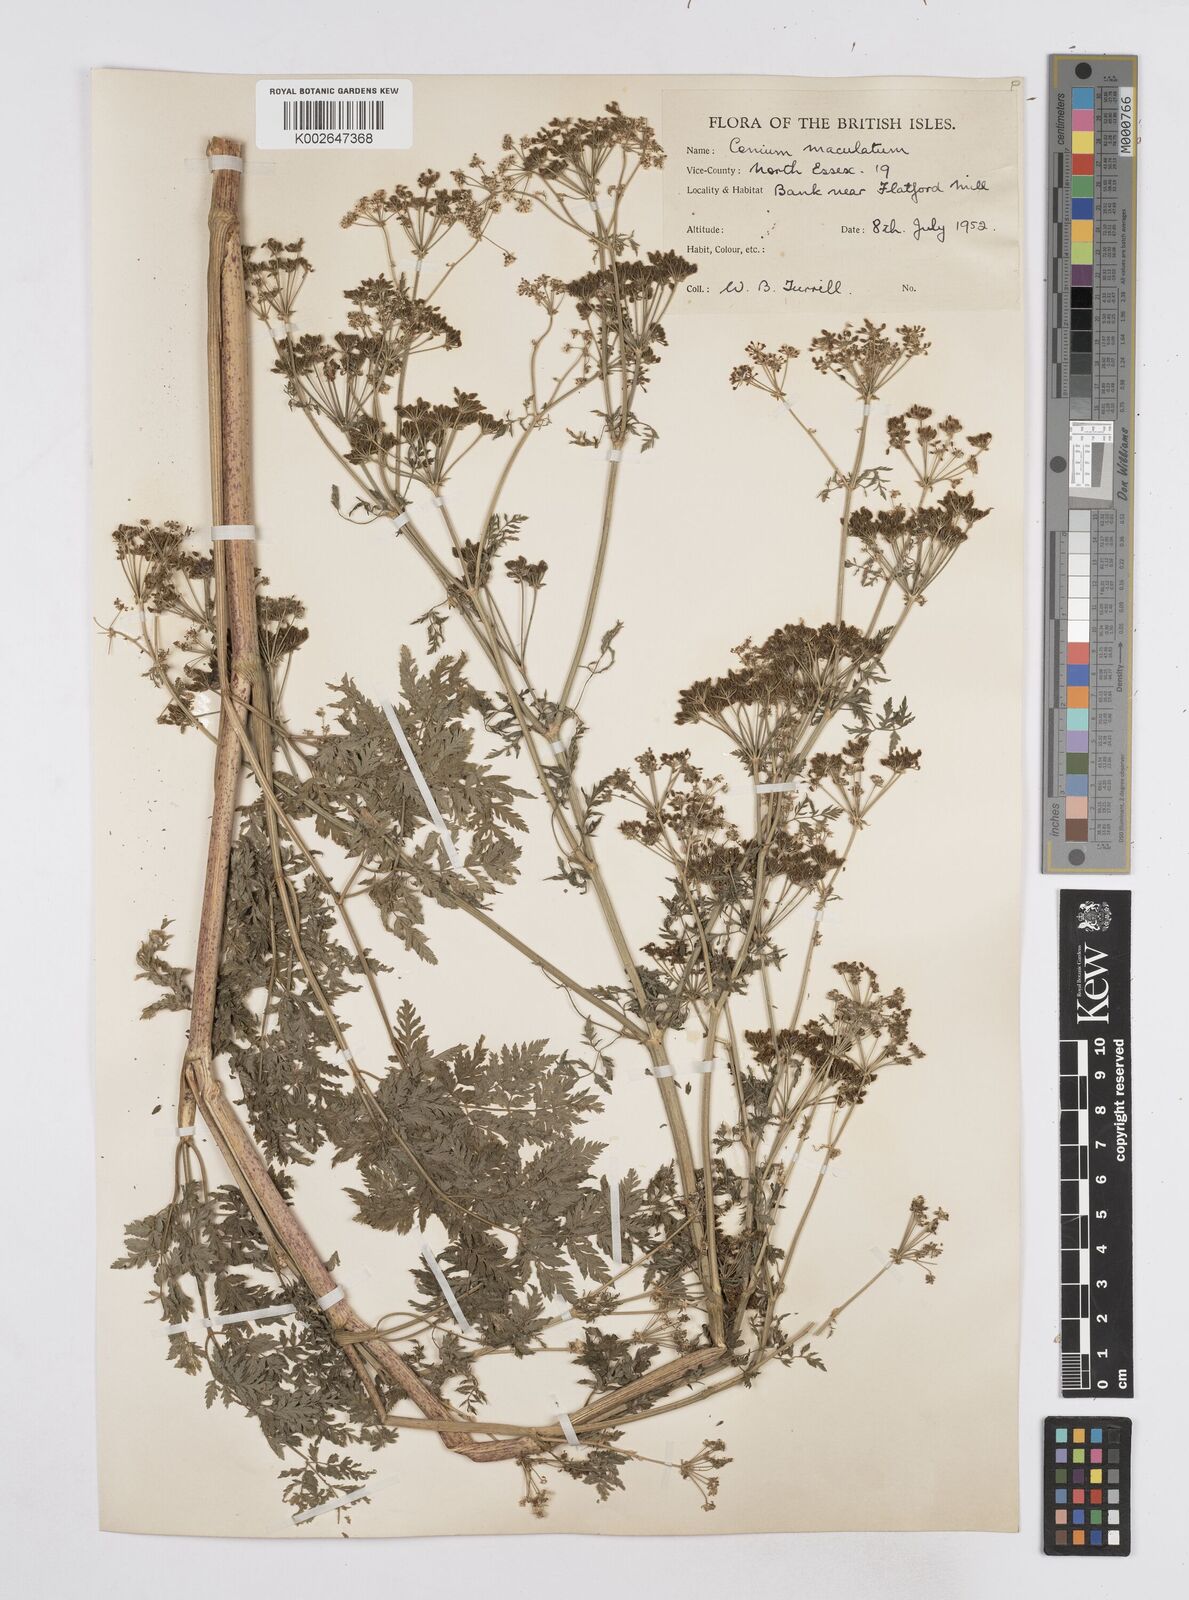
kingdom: Plantae
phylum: Tracheophyta
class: Magnoliopsida
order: Apiales
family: Apiaceae
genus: Conium
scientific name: Conium maculatum
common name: Hemlock
